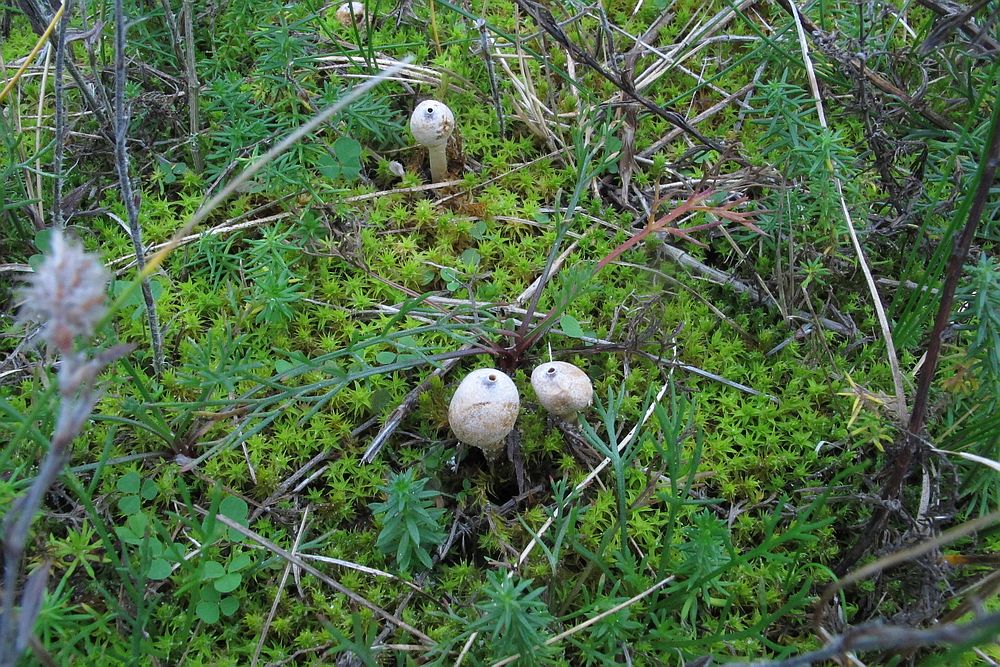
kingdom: Fungi
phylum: Basidiomycota
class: Agaricomycetes
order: Agaricales
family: Agaricaceae
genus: Tulostoma
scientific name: Tulostoma brumale
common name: vinter-stilkbovist
